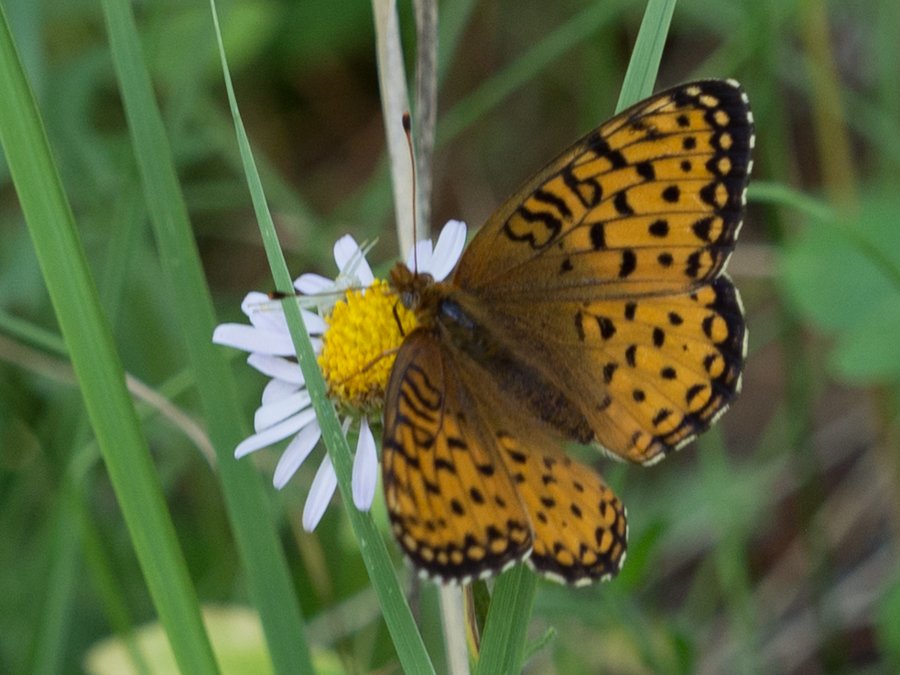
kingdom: Animalia
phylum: Arthropoda
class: Insecta
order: Lepidoptera
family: Nymphalidae
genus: Speyeria
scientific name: Speyeria atlantis
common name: Atlantis Fritillary
